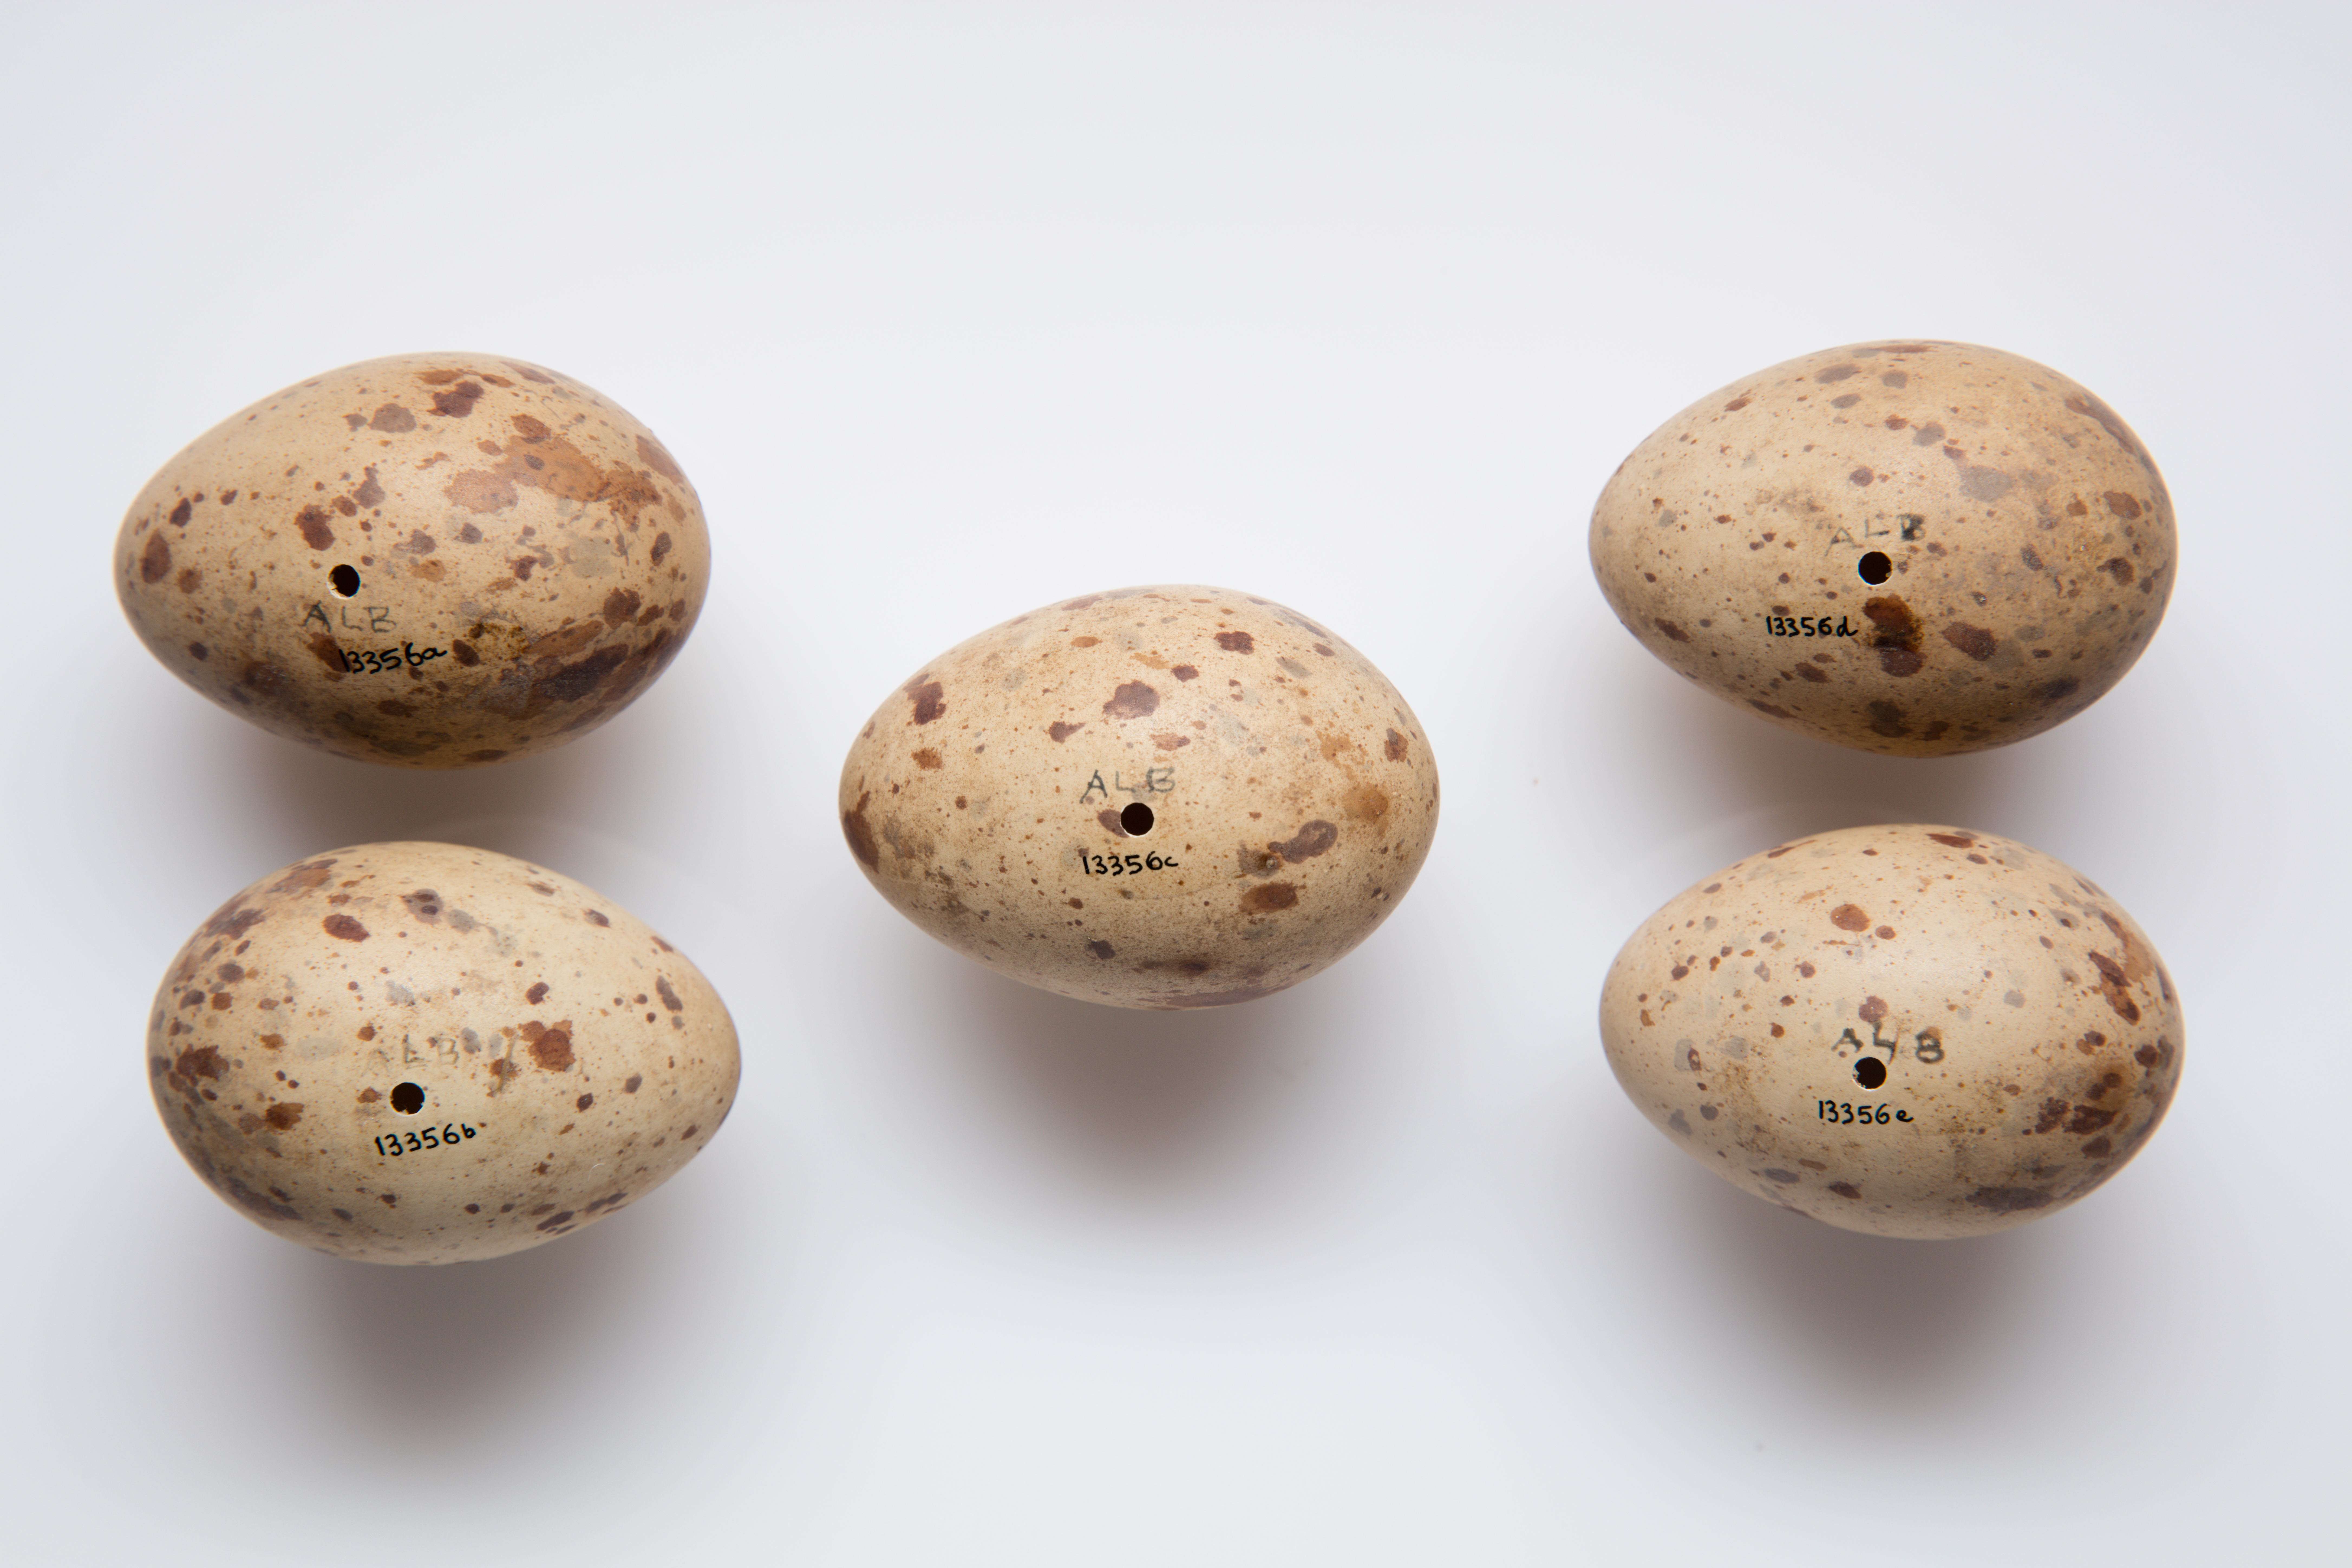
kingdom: Animalia
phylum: Chordata
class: Aves
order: Gruiformes
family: Rallidae
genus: Porphyrio
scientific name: Porphyrio melanotus
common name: Australasian swamphen
